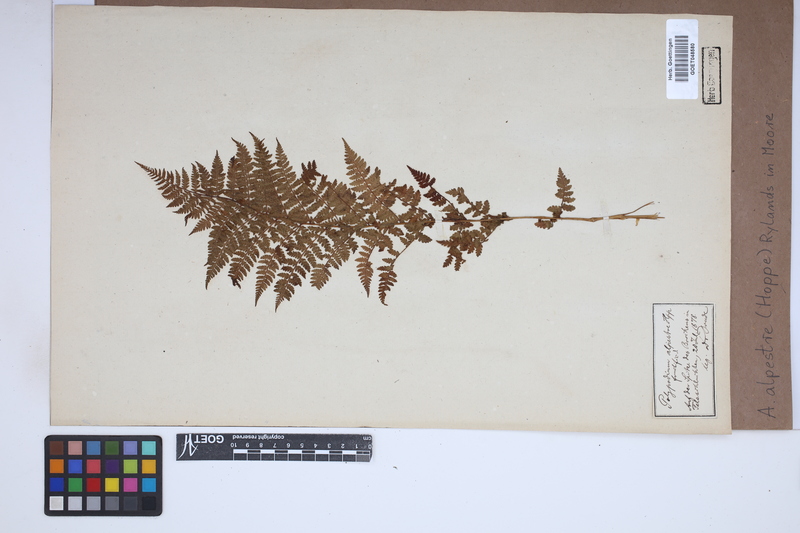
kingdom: Plantae
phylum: Tracheophyta
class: Polypodiopsida
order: Polypodiales
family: Athyriaceae
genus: Pseudathyrium
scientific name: Pseudathyrium alpestre
